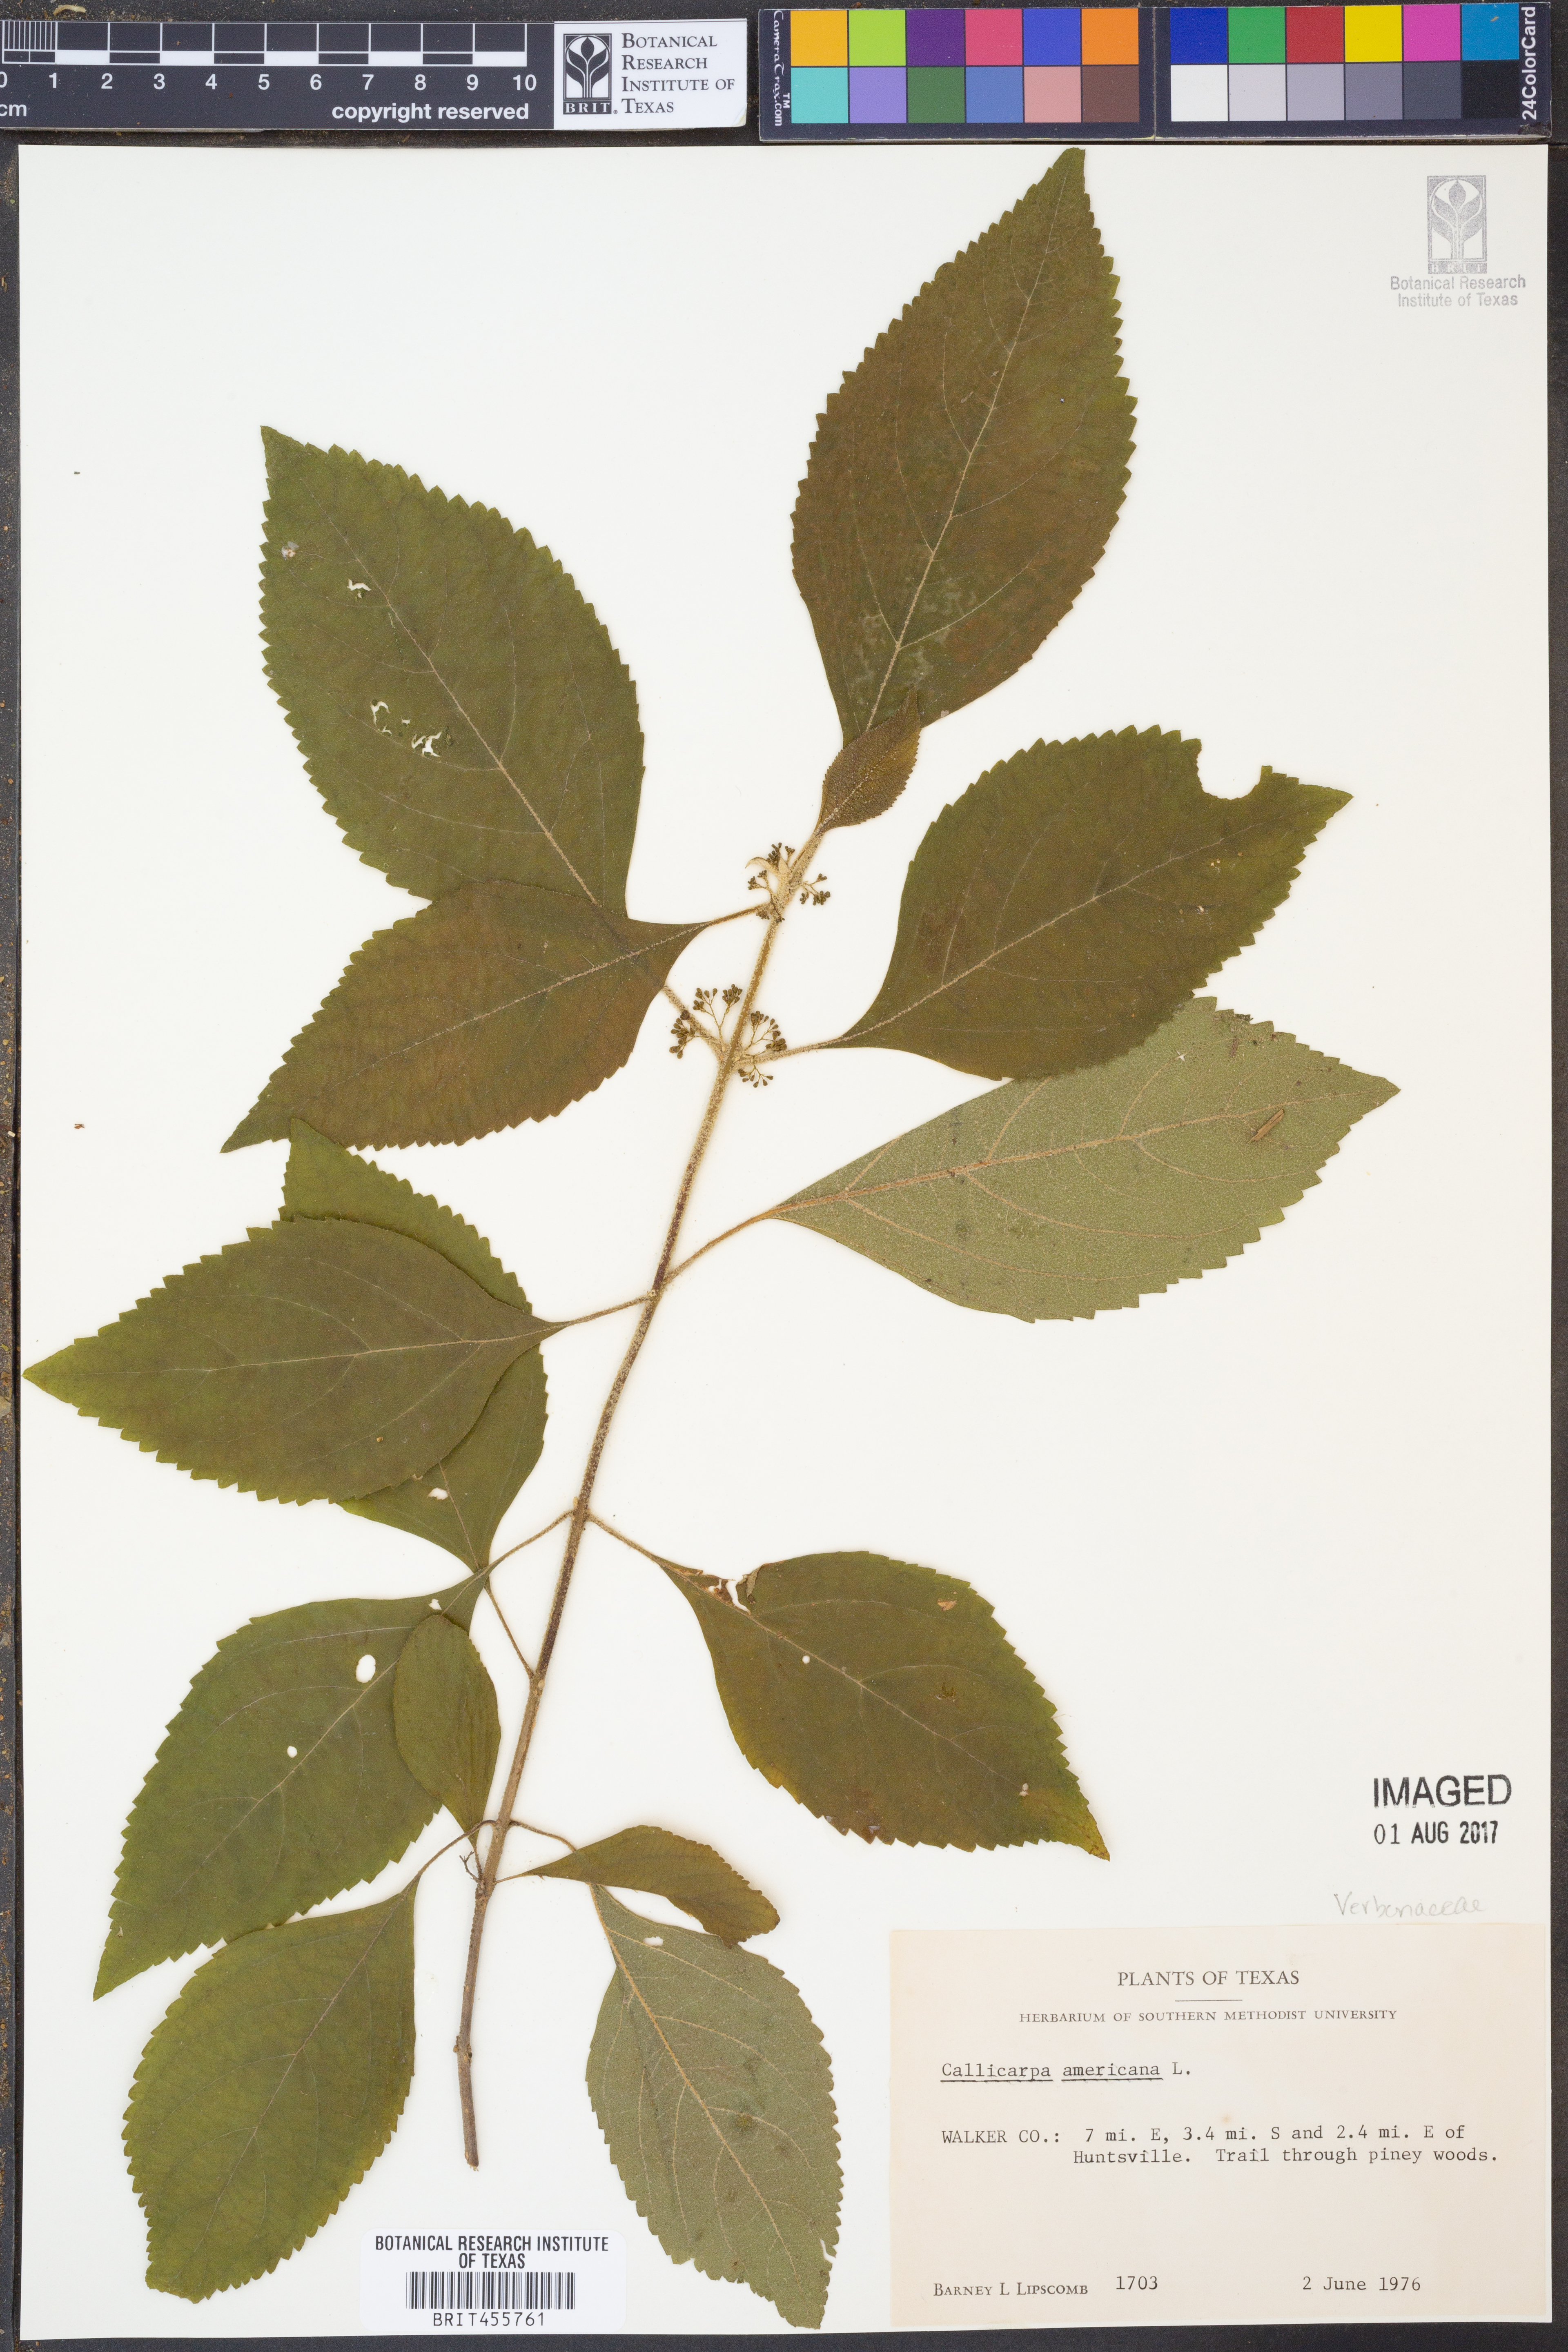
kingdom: Plantae
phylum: Tracheophyta
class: Magnoliopsida
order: Lamiales
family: Lamiaceae
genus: Callicarpa
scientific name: Callicarpa americana
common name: American beautyberry
